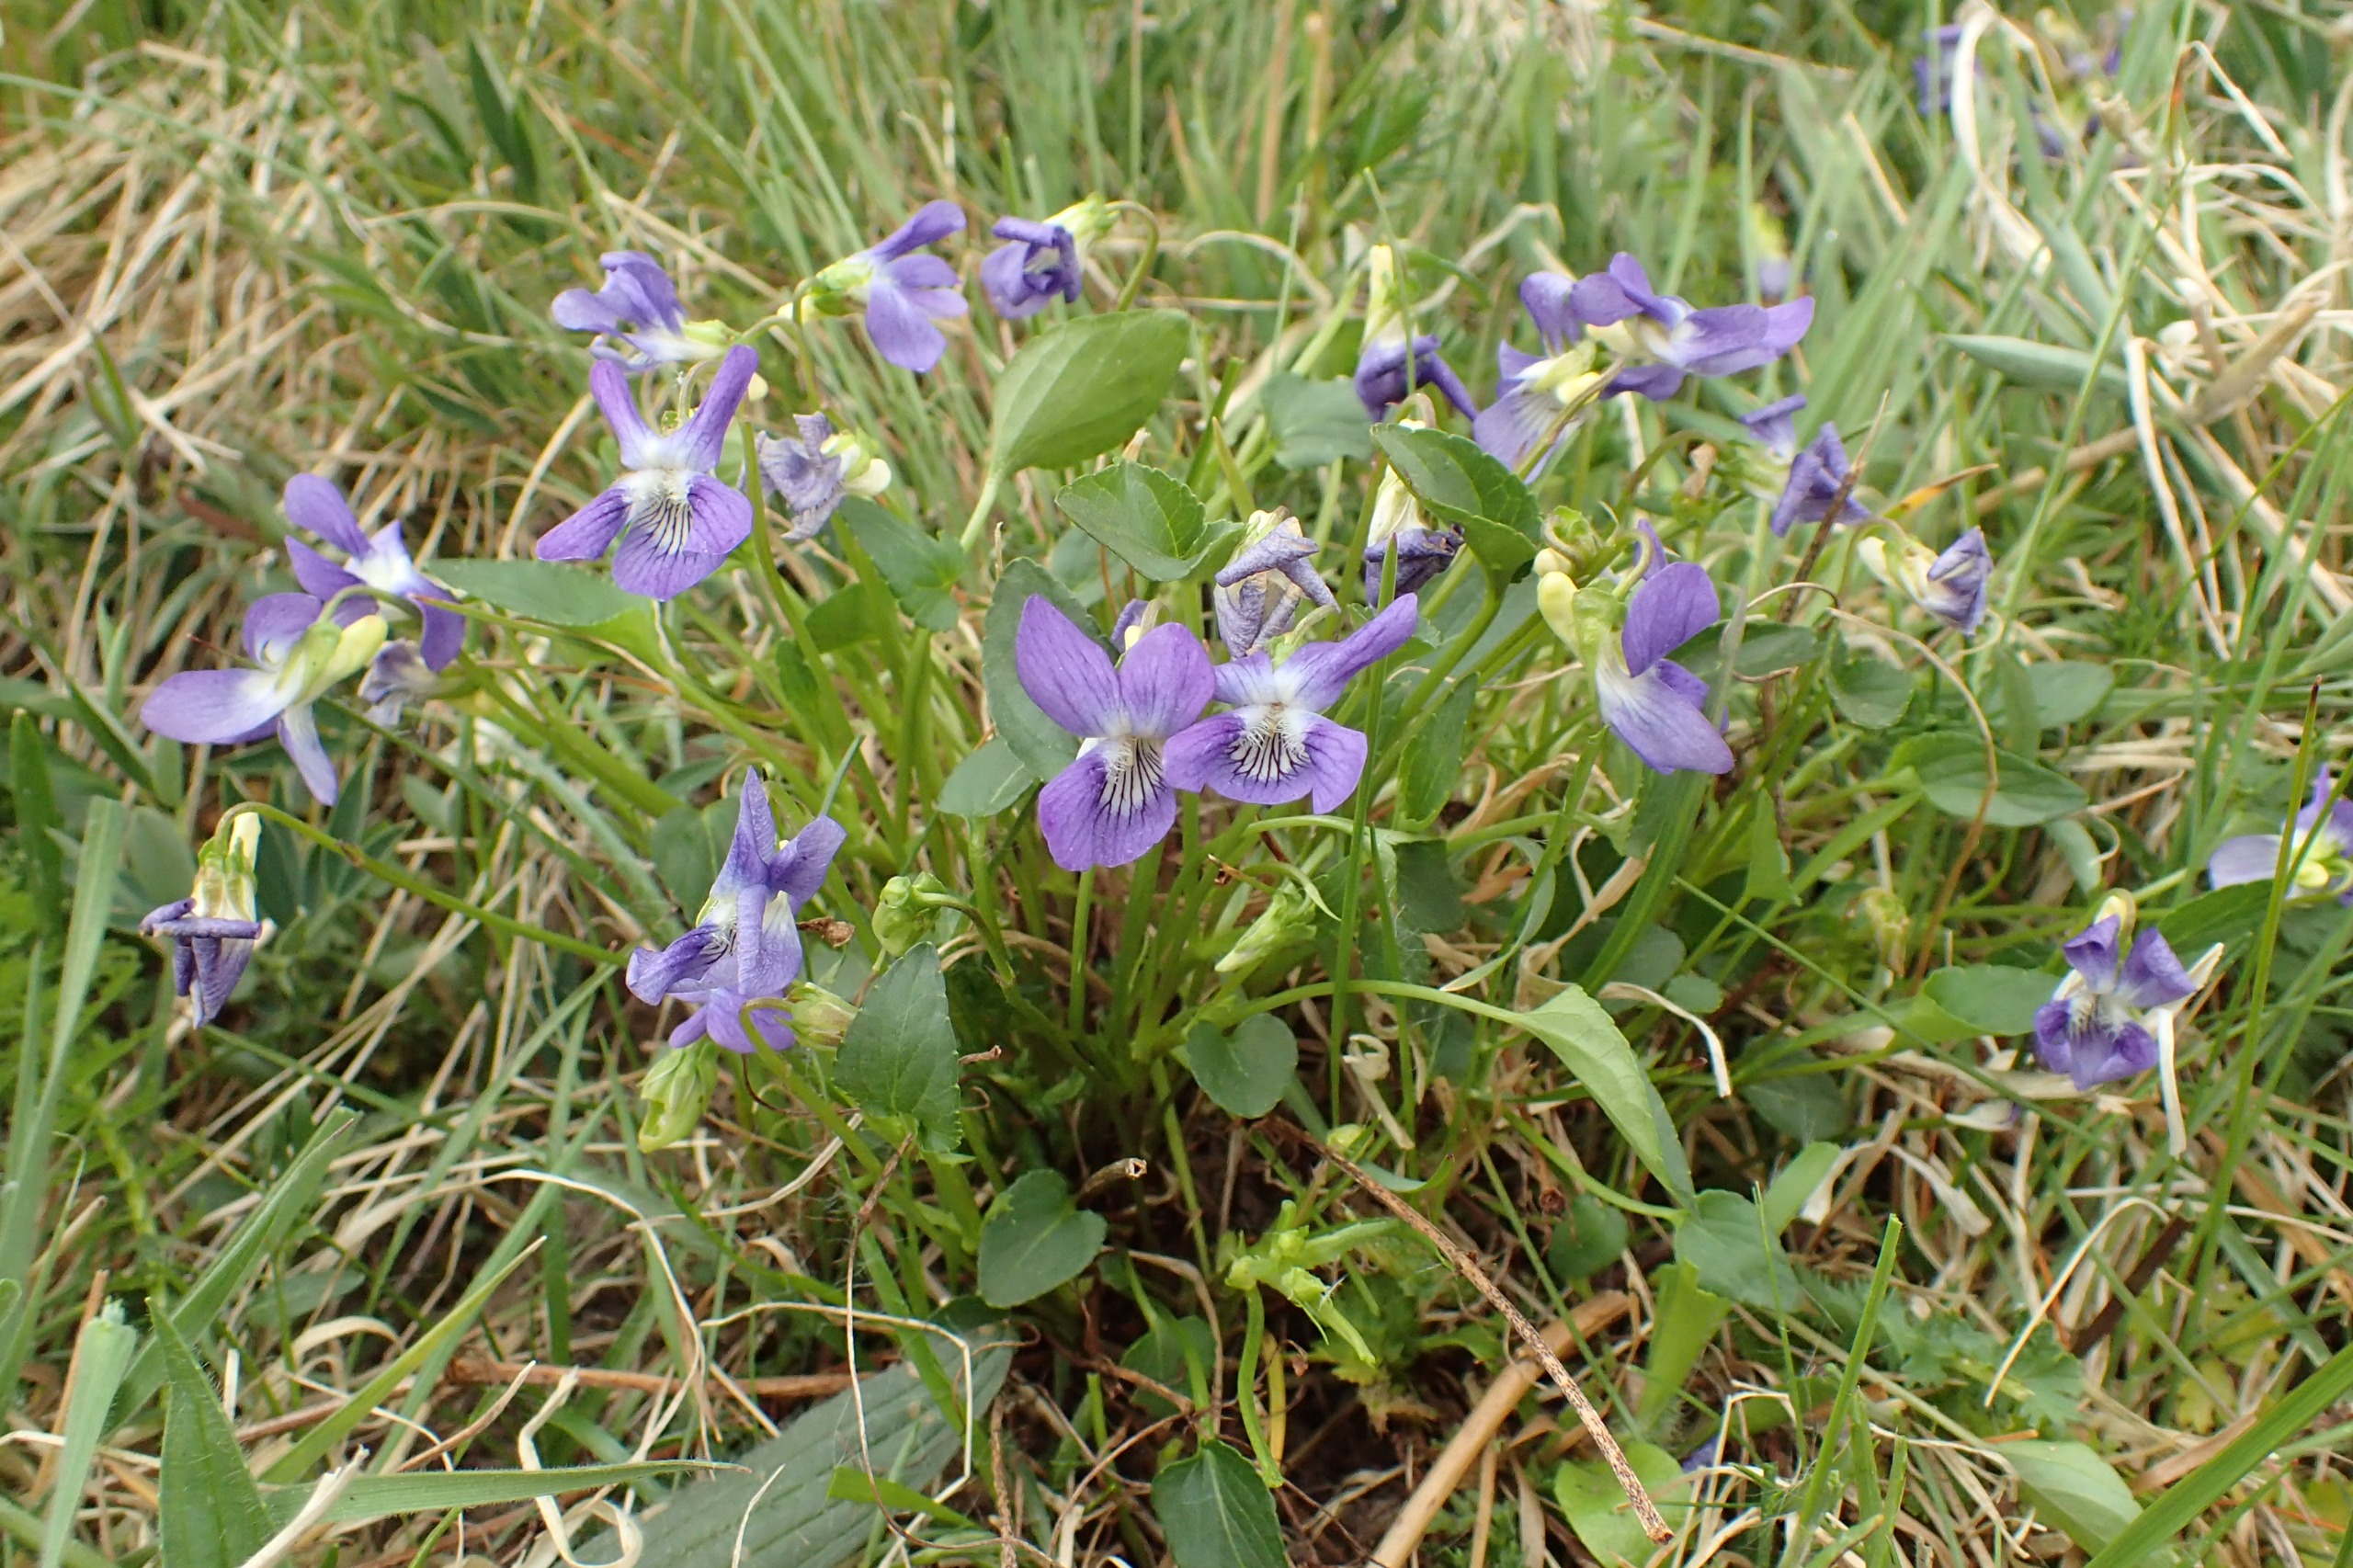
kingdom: Plantae
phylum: Tracheophyta
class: Magnoliopsida
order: Malpighiales
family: Violaceae
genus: Viola
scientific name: Viola canina
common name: Hunde-viol
